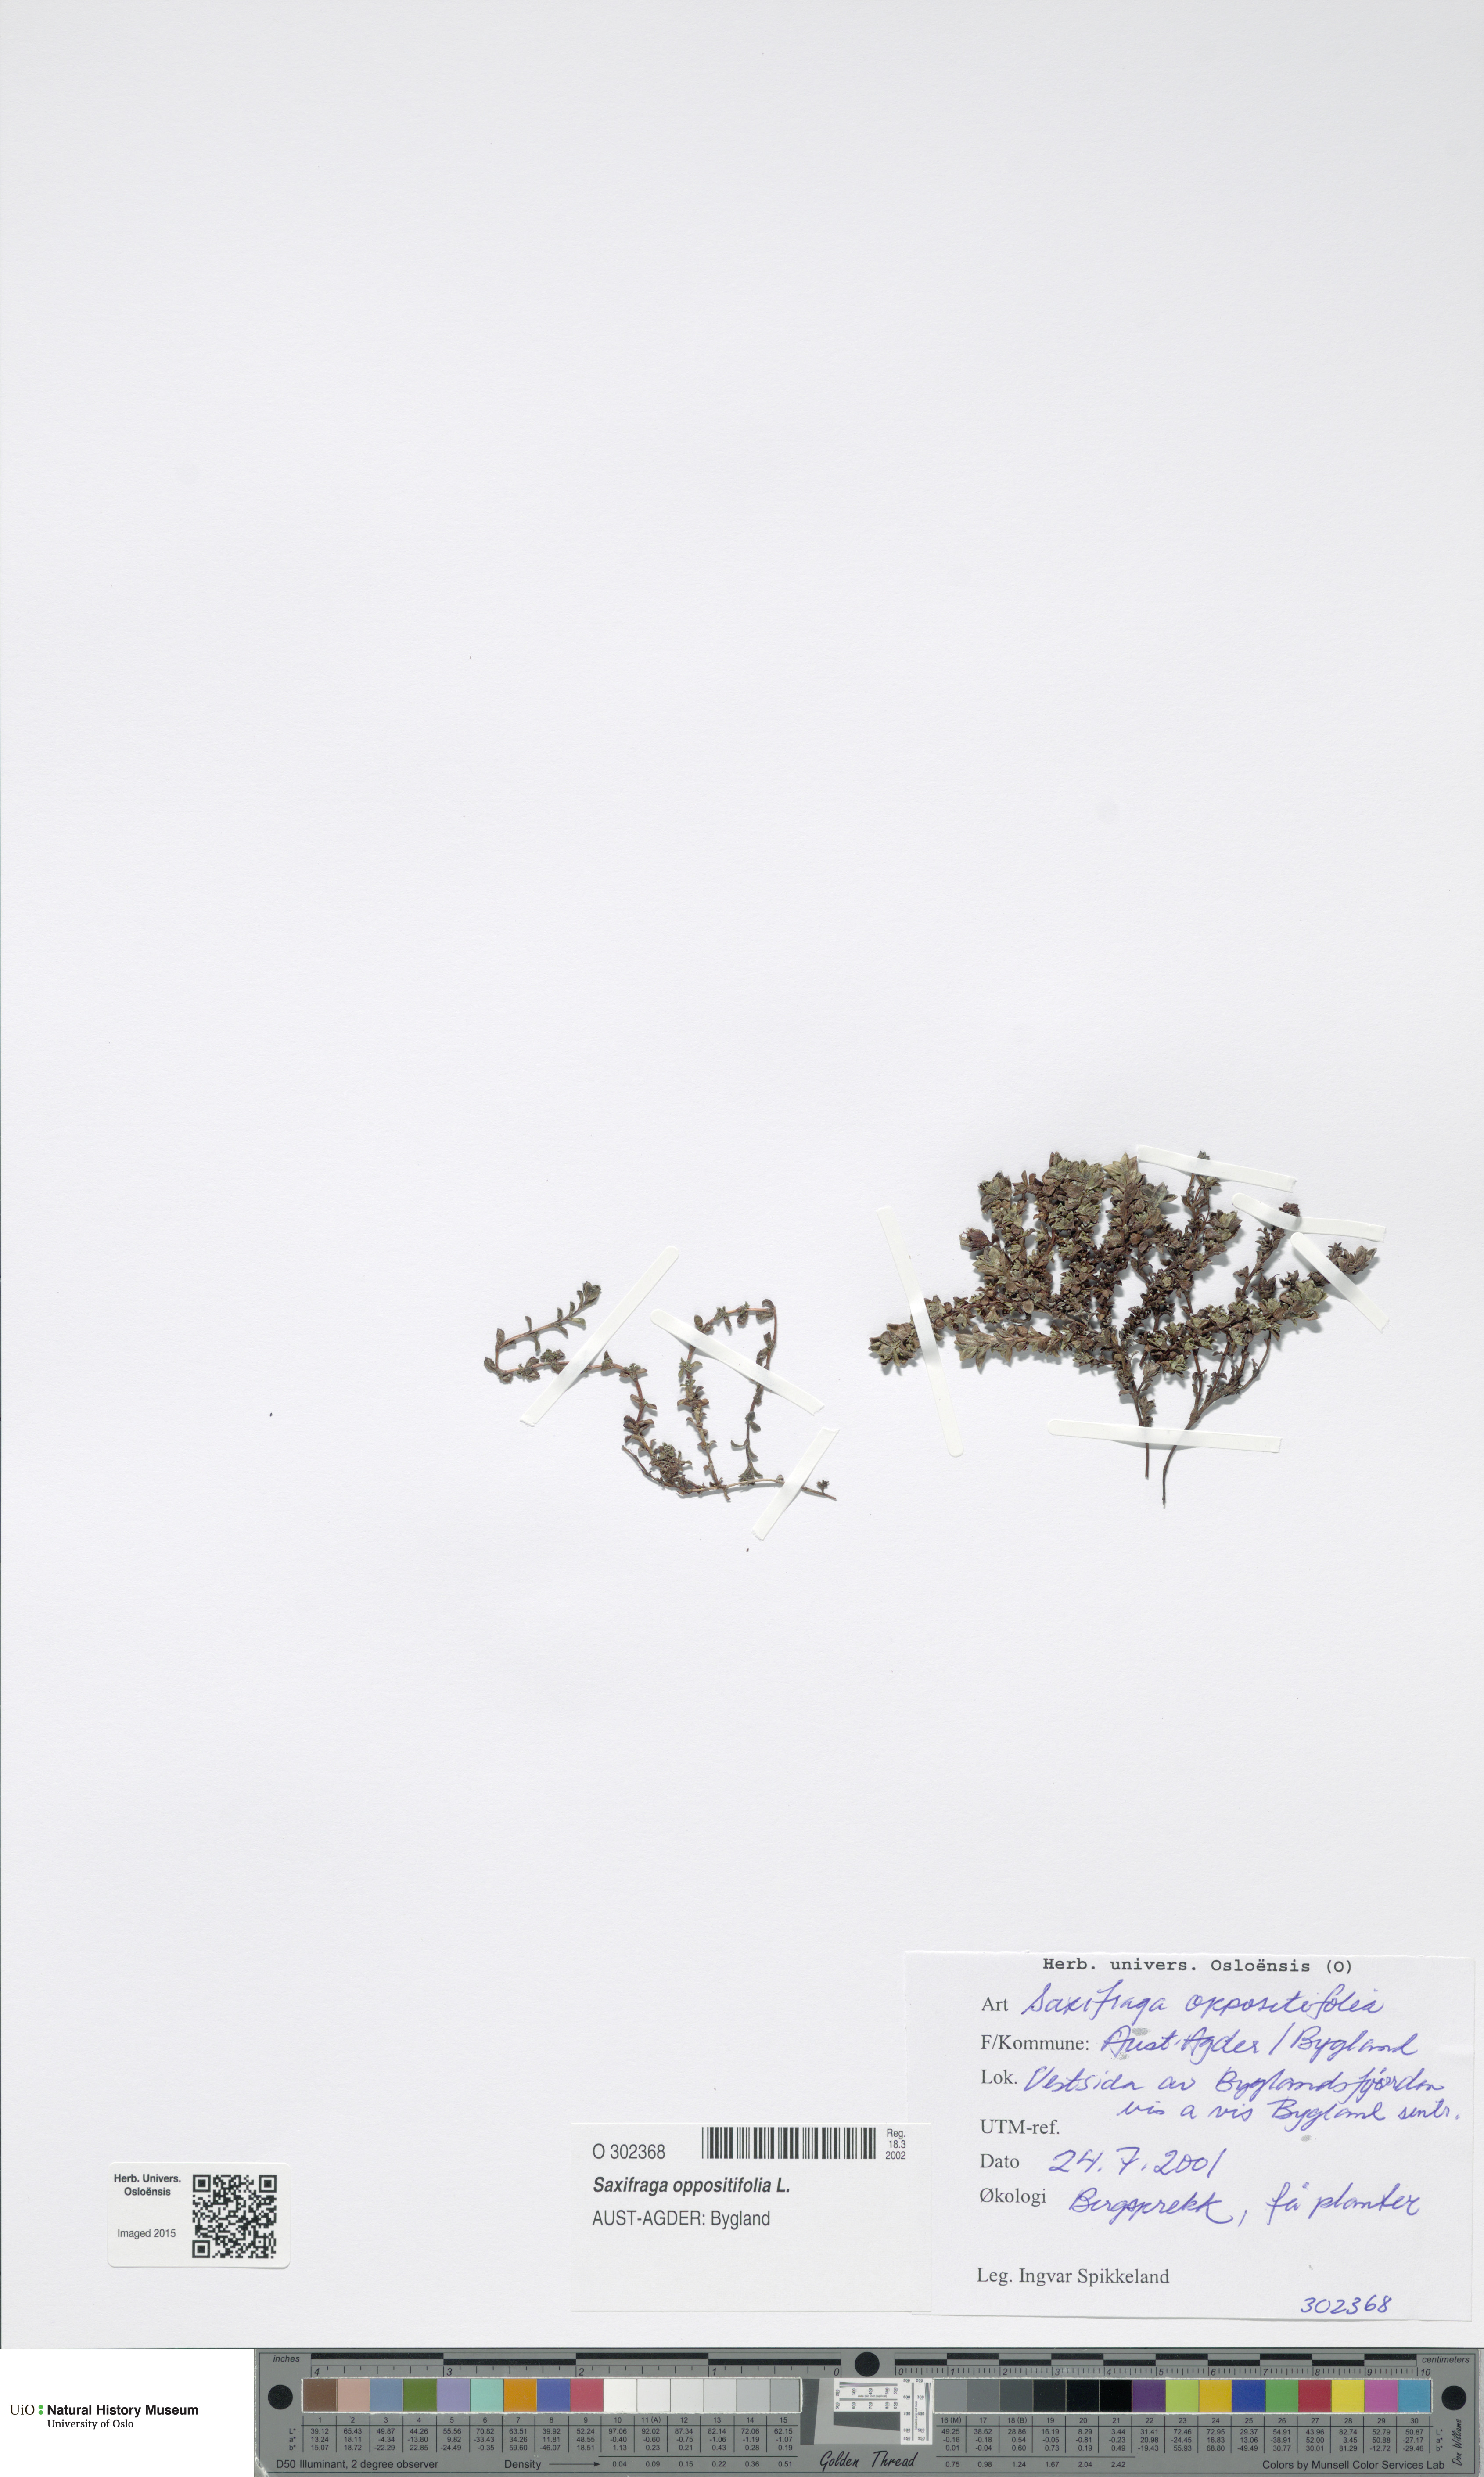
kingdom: Plantae
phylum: Tracheophyta
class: Magnoliopsida
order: Saxifragales
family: Saxifragaceae
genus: Saxifraga
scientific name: Saxifraga oppositifolia
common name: Purple saxifrage
